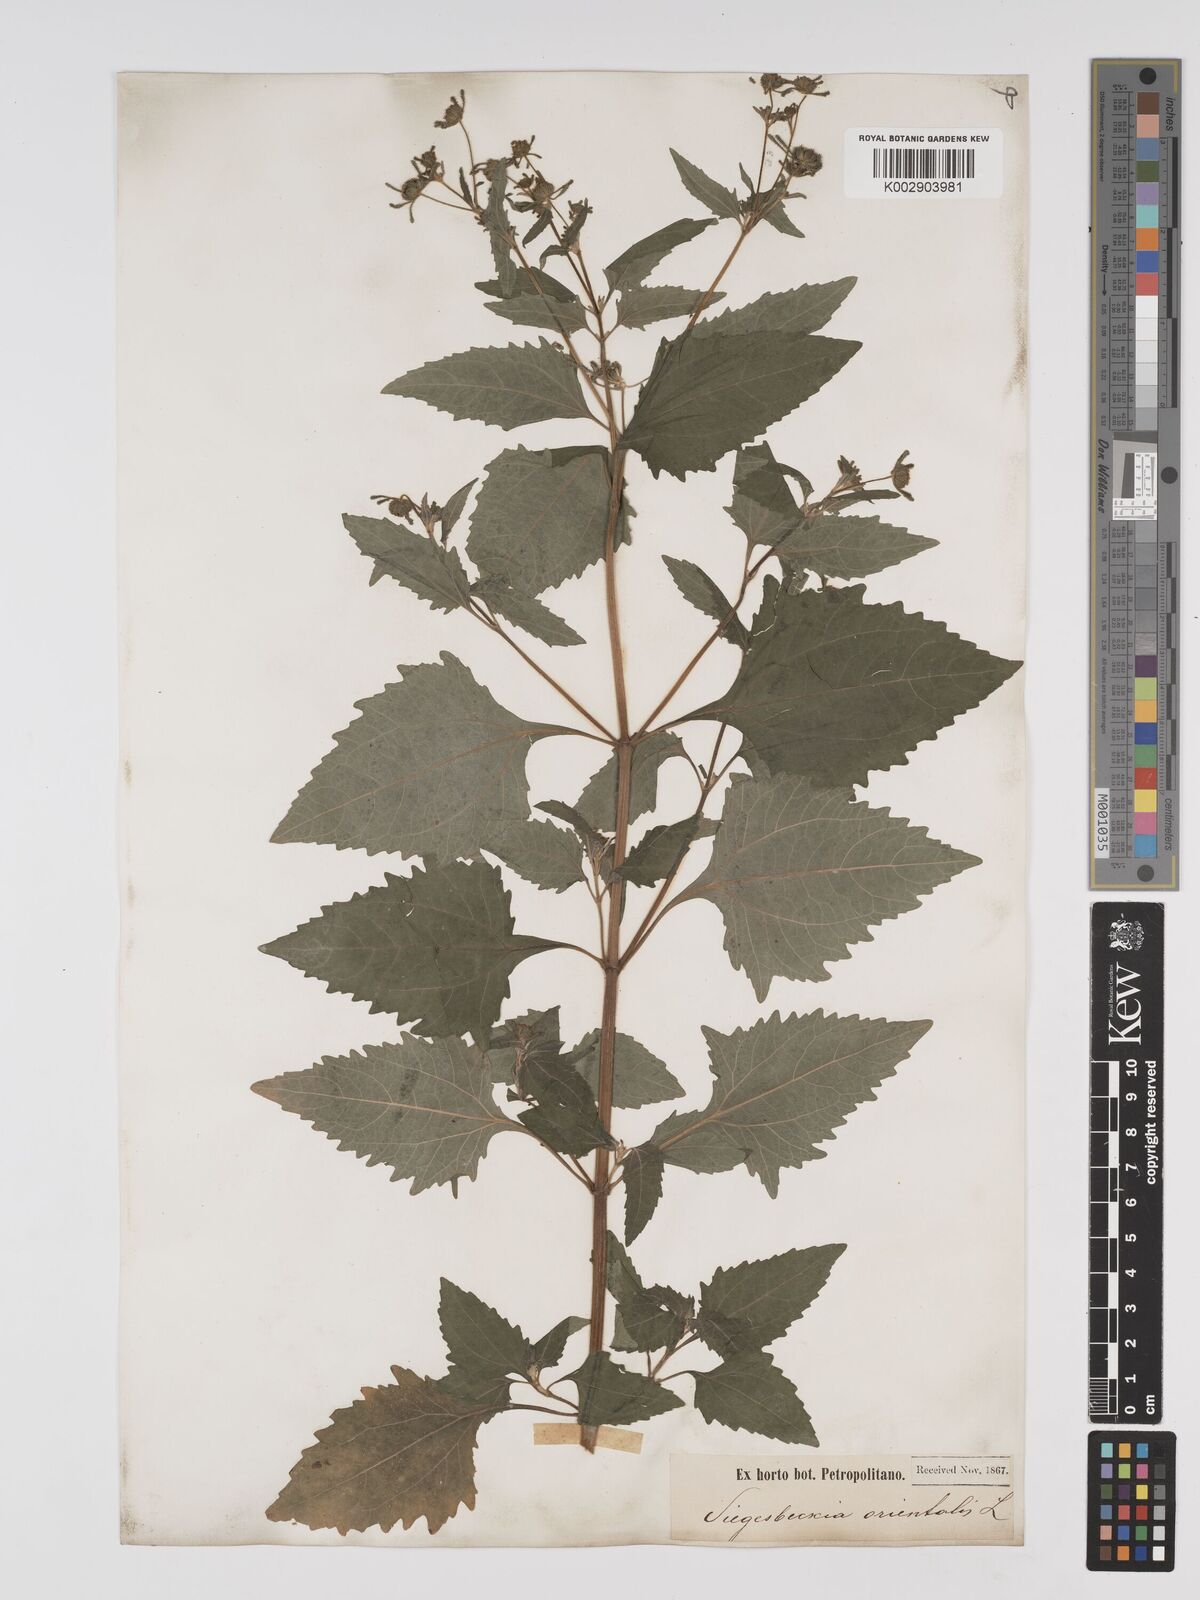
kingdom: Plantae
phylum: Tracheophyta
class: Magnoliopsida
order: Asterales
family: Asteraceae
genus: Sigesbeckia
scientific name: Sigesbeckia orientalis
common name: Eastern st paul's-wort
